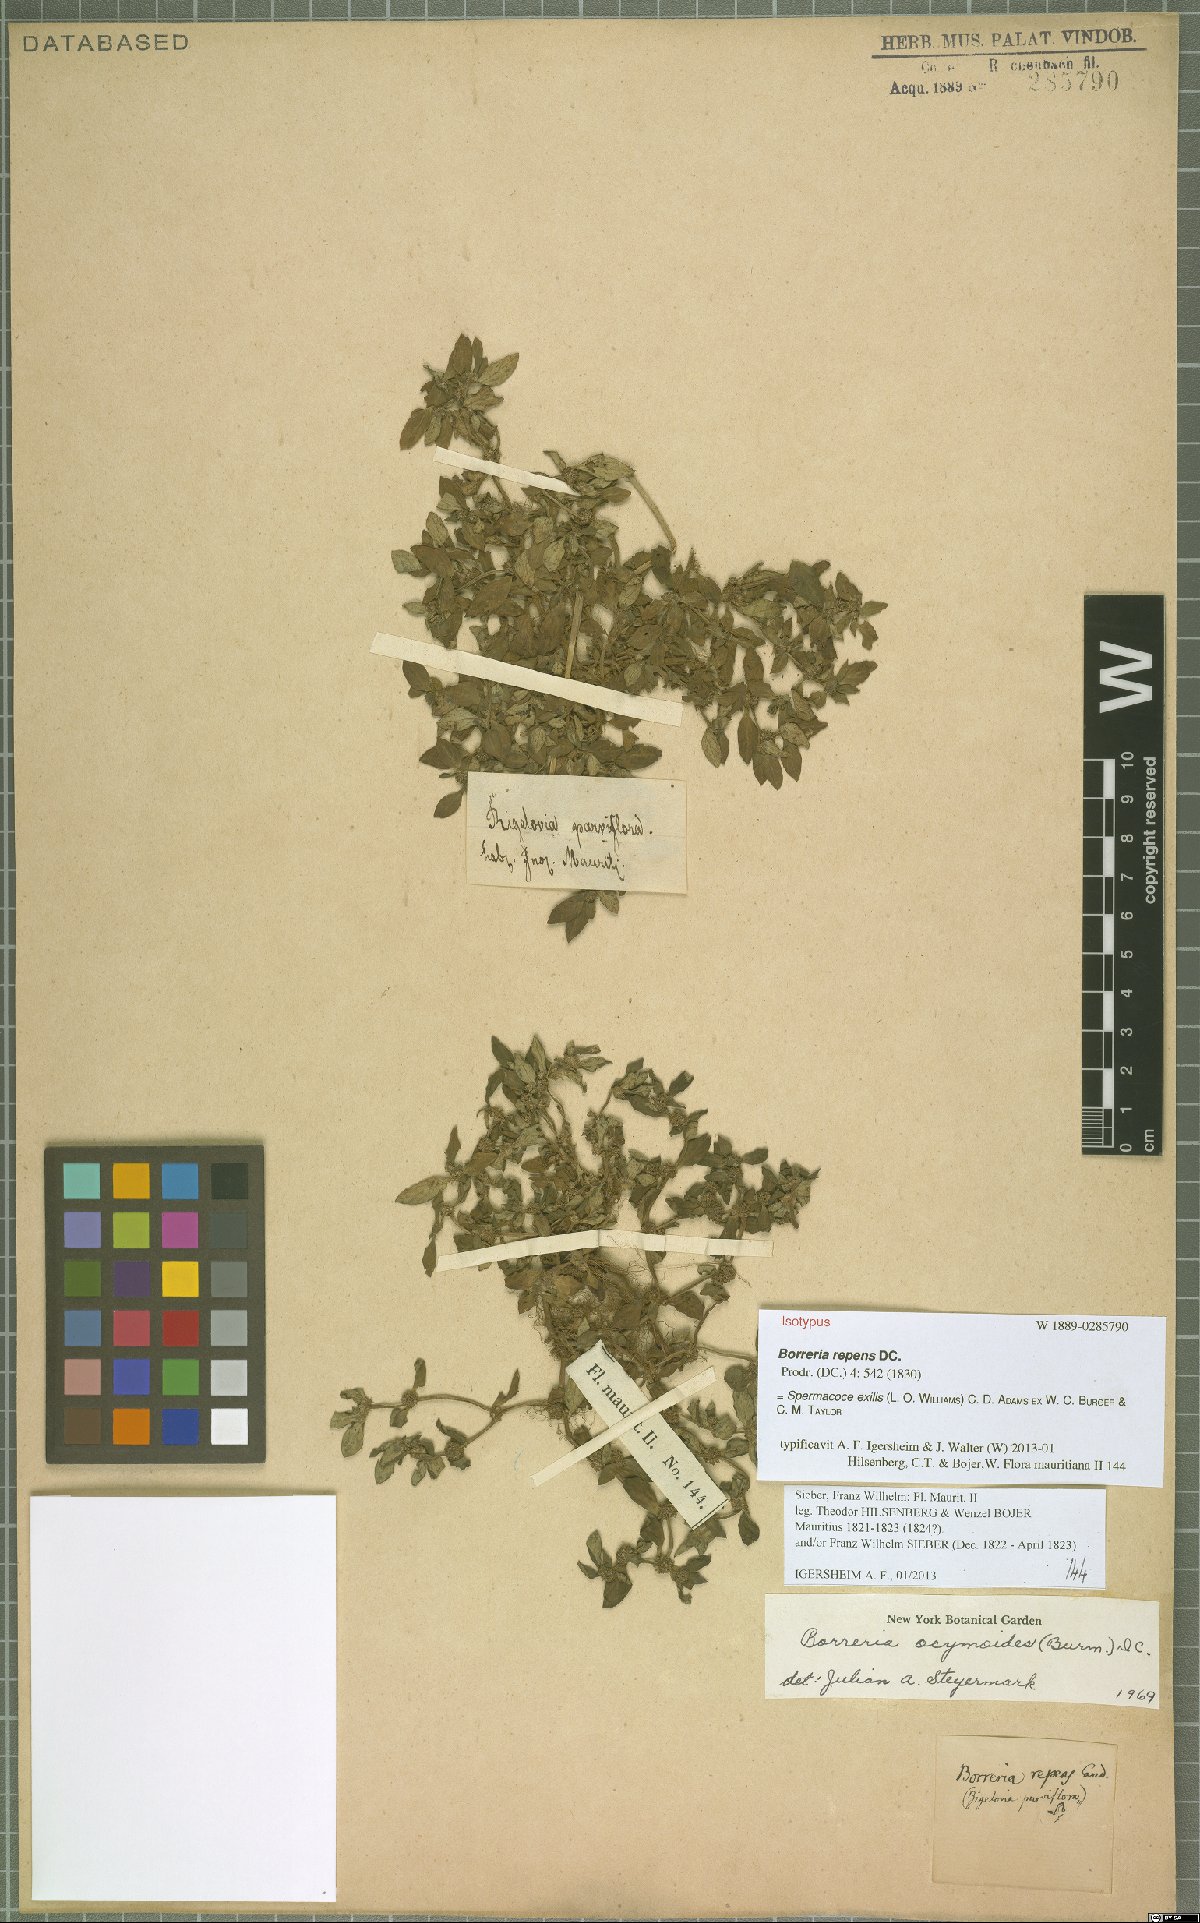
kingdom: Plantae
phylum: Tracheophyta
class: Magnoliopsida
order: Gentianales
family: Rubiaceae
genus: Spermacoce
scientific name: Spermacoce exilis
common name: Pacific false buttonweed
